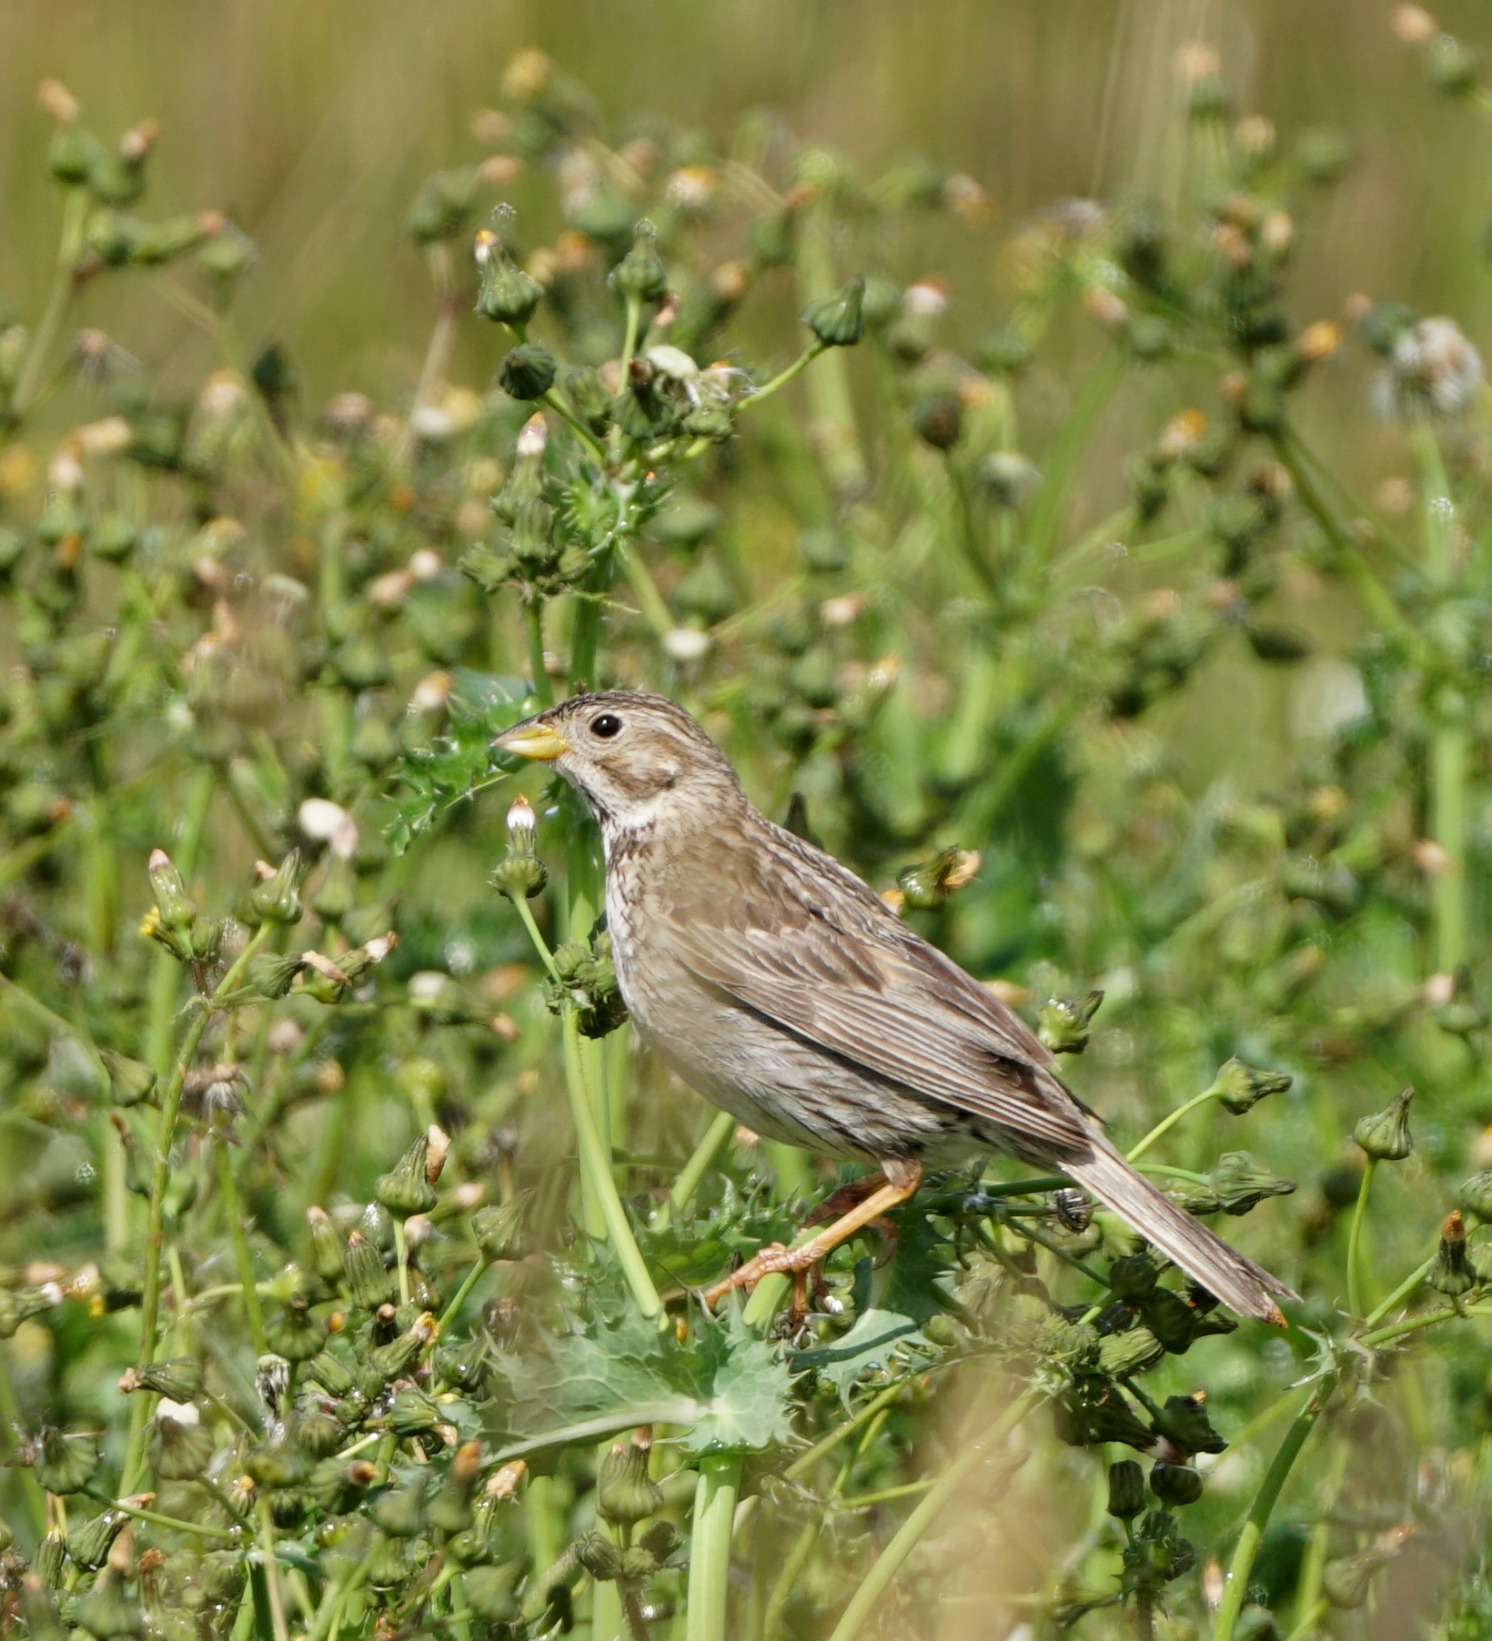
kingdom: Animalia
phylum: Chordata
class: Aves
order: Passeriformes
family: Emberizidae
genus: Emberiza
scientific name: Emberiza calandra
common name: Bomlærke
